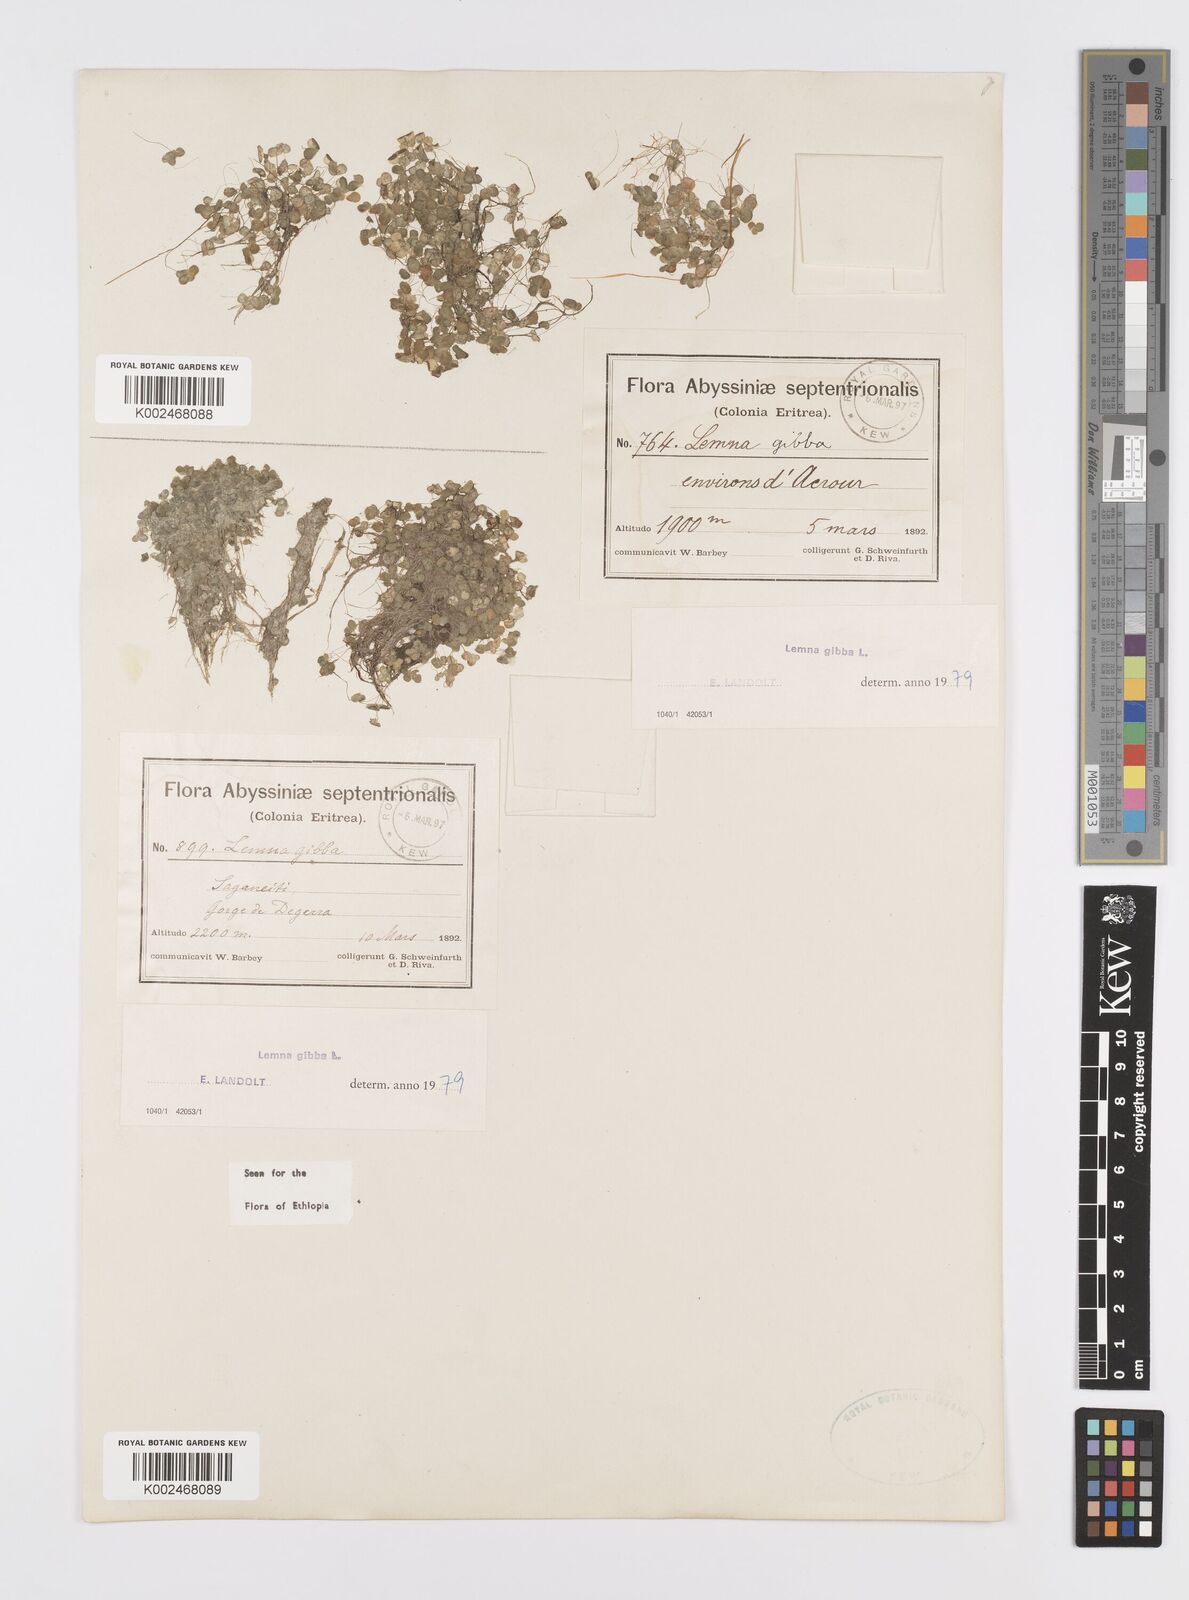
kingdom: Plantae
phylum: Tracheophyta
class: Liliopsida
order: Alismatales
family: Araceae
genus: Lemna
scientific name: Lemna gibba
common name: Fat duckweed
